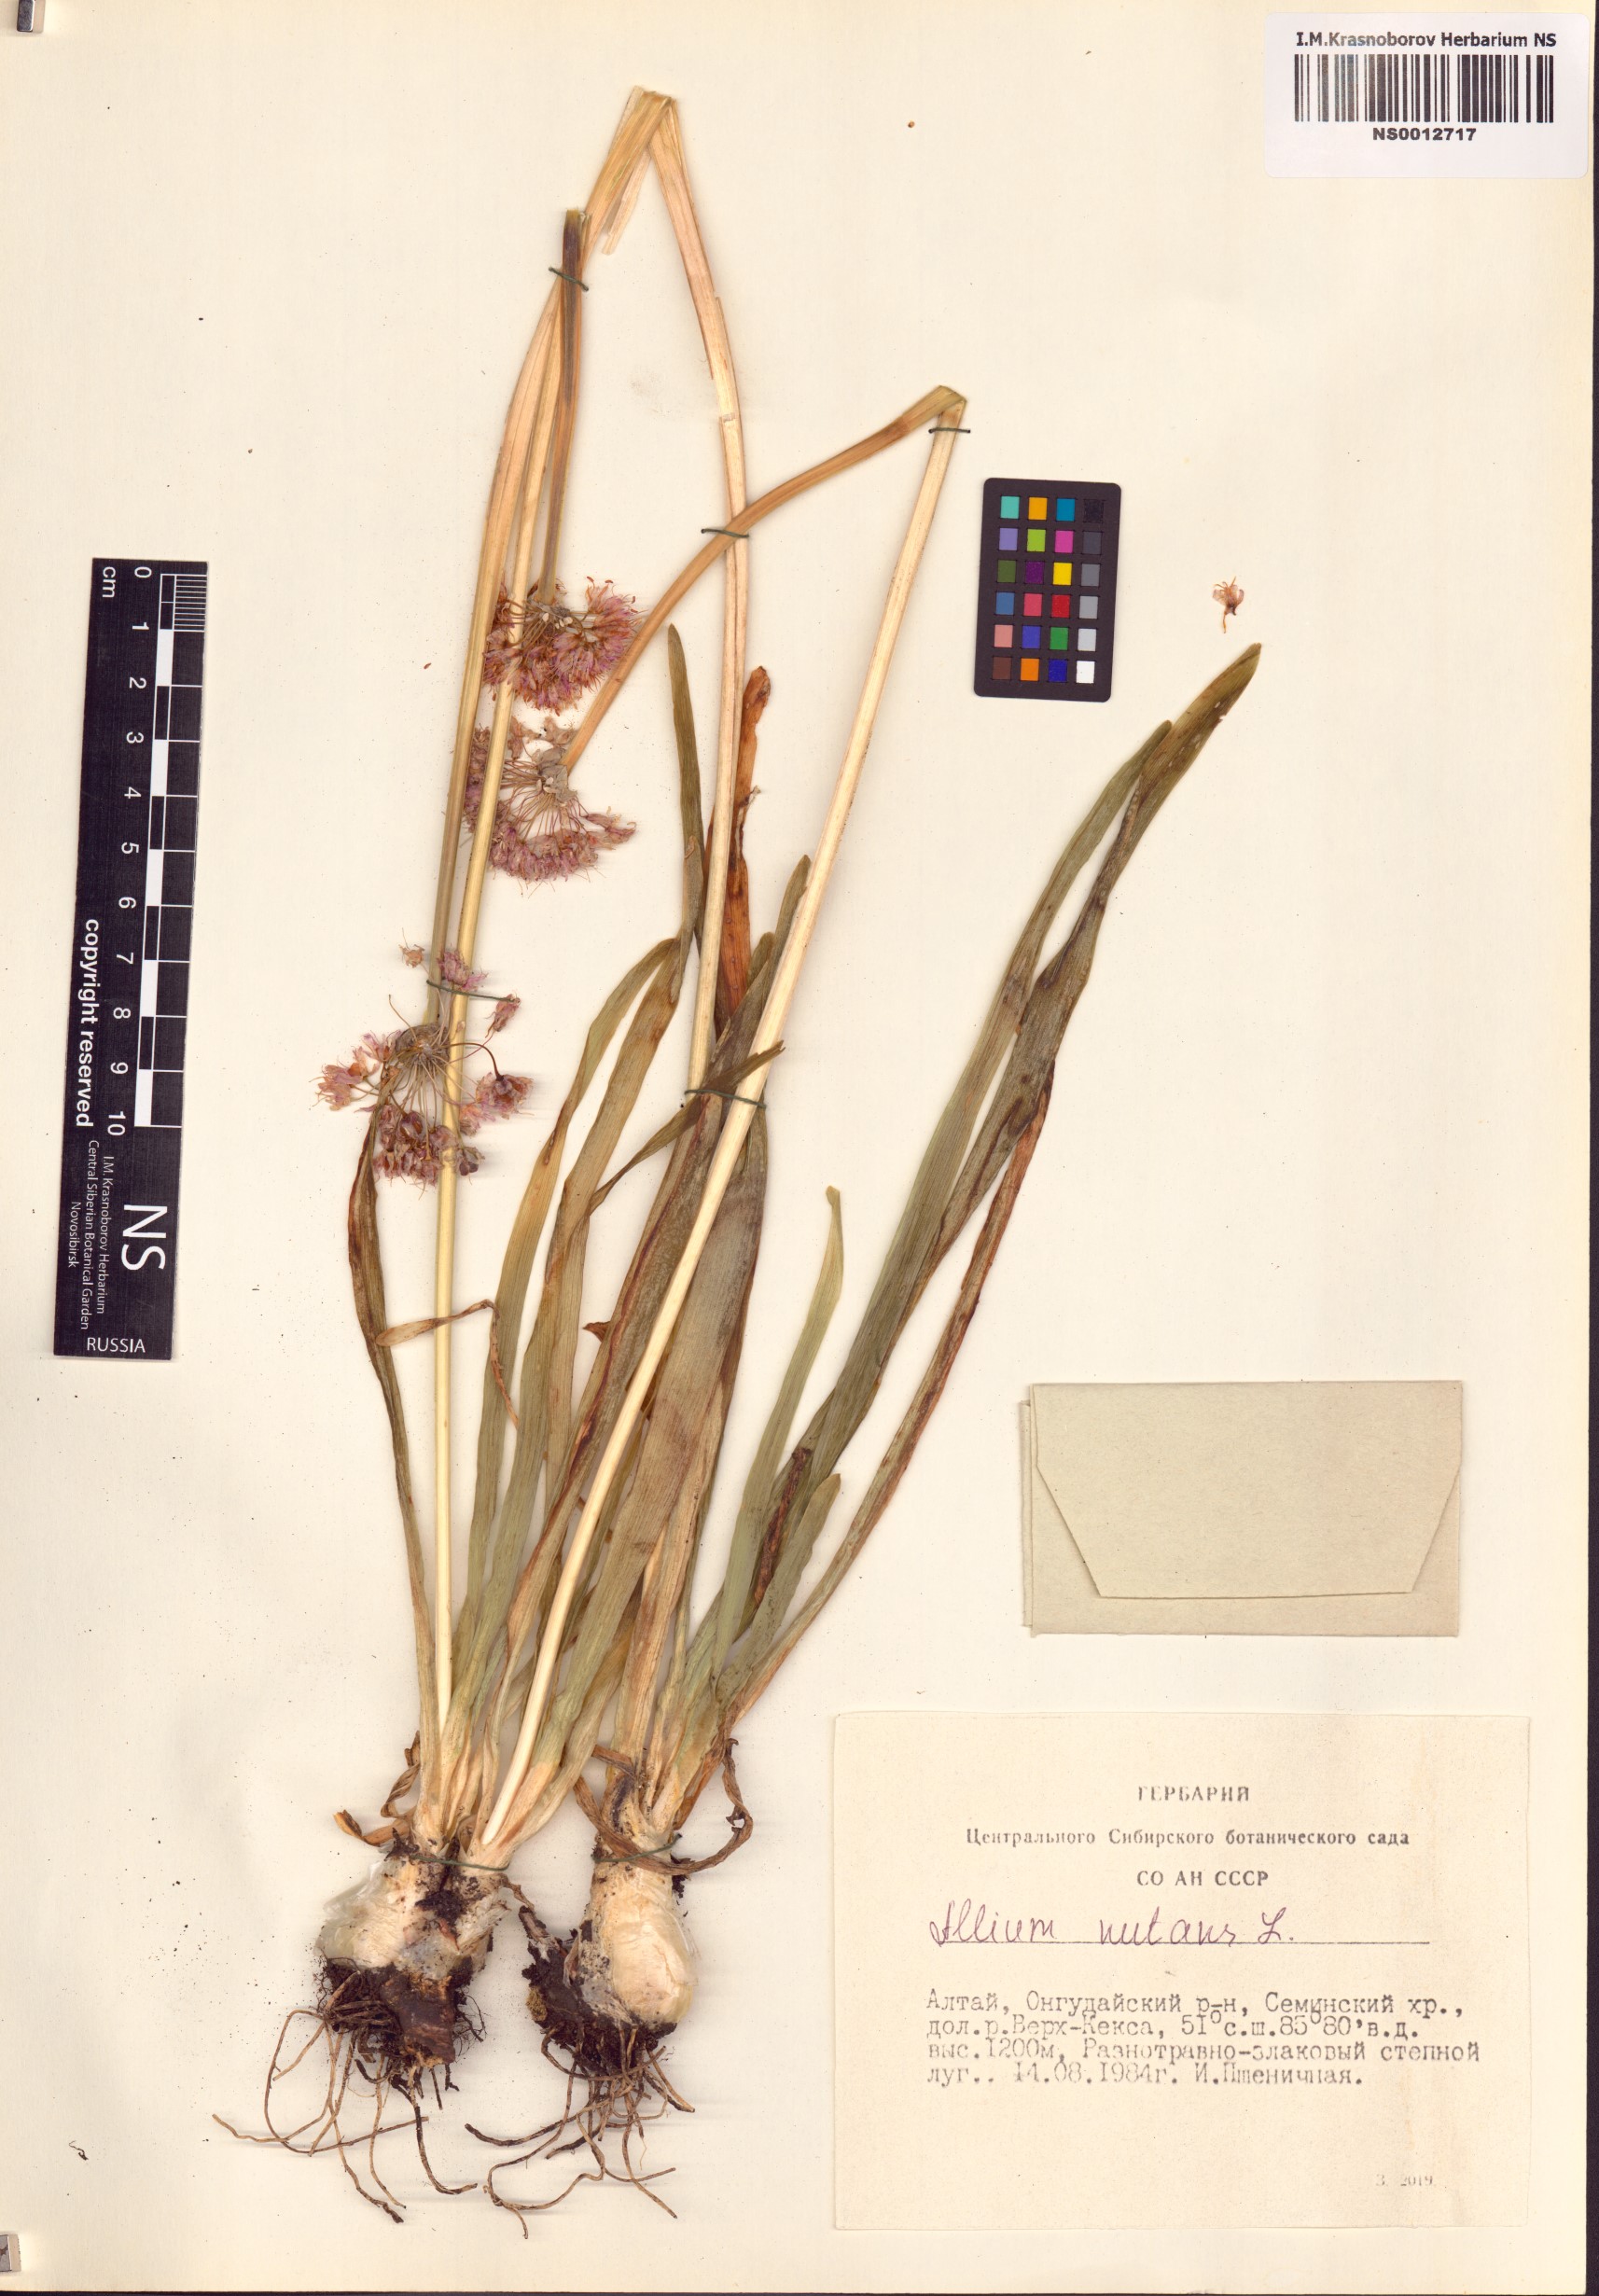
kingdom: Plantae
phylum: Tracheophyta
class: Liliopsida
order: Asparagales
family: Amaryllidaceae
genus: Allium
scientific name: Allium nutans
